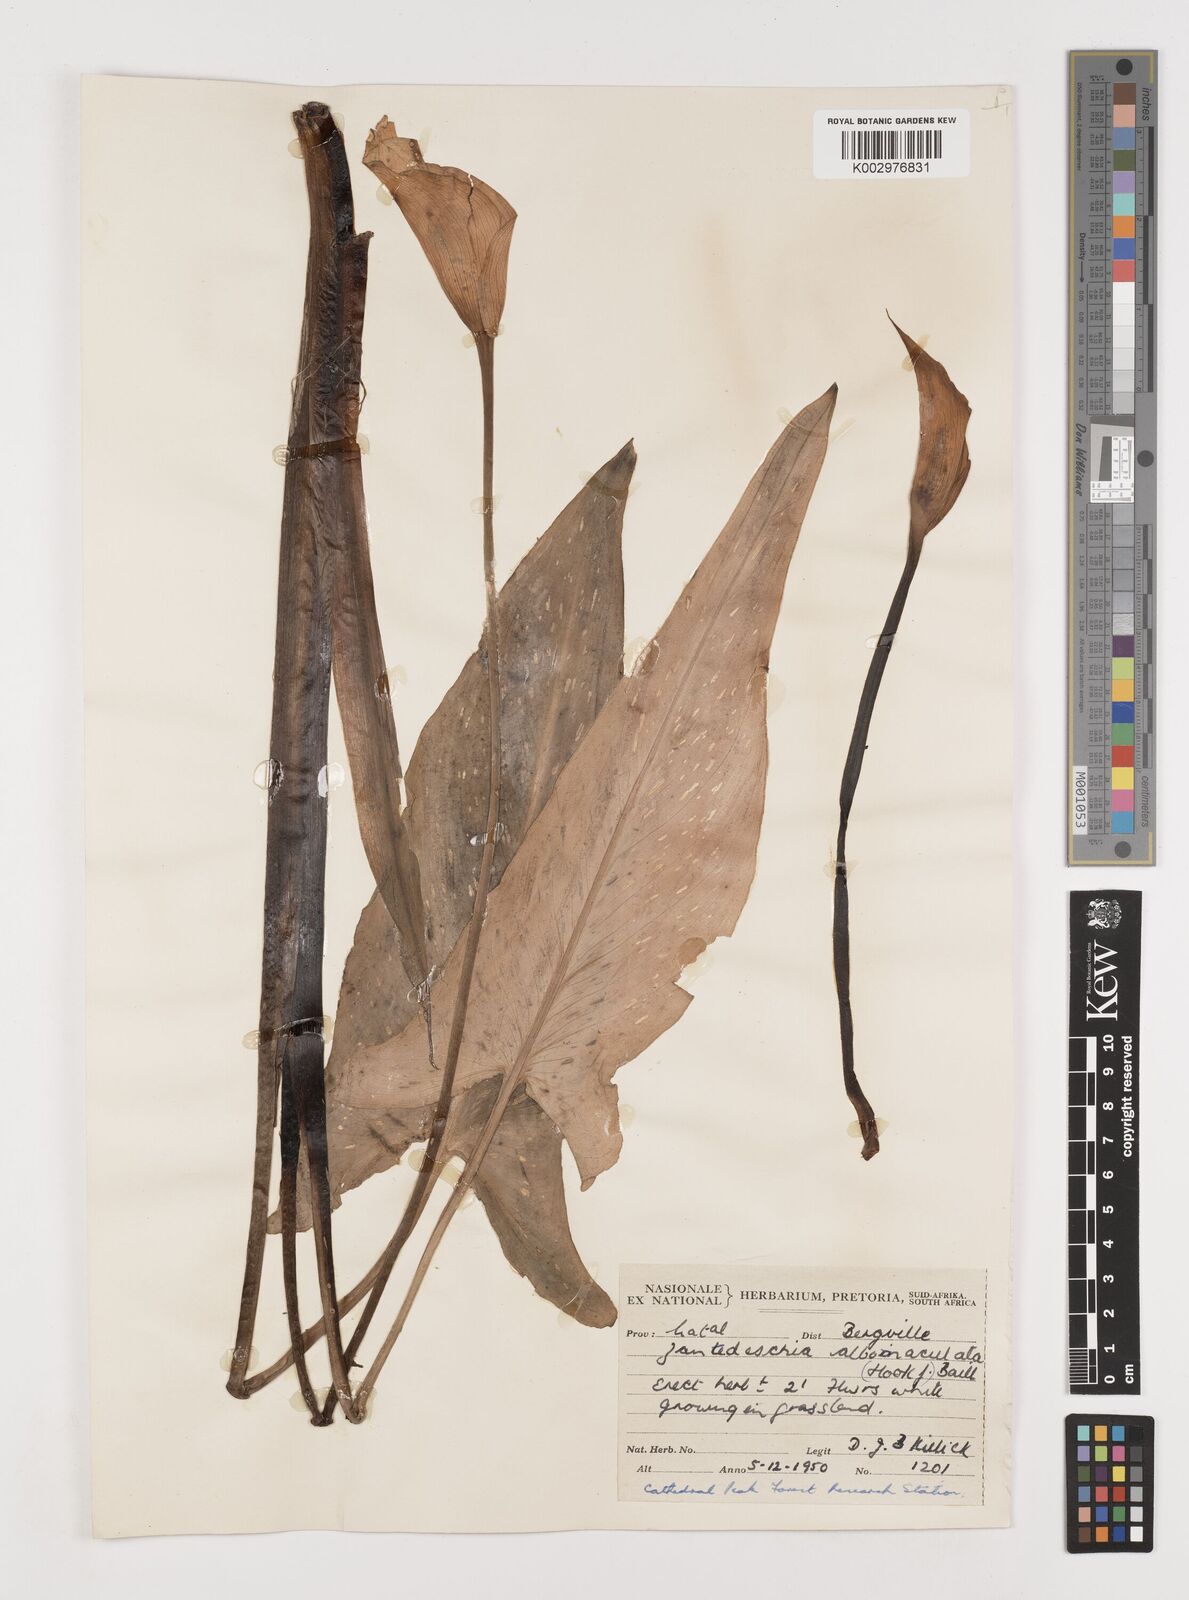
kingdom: Plantae
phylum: Tracheophyta
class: Liliopsida
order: Alismatales
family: Araceae
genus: Zantedeschia
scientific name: Zantedeschia albomaculata
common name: Spotted calla lily
